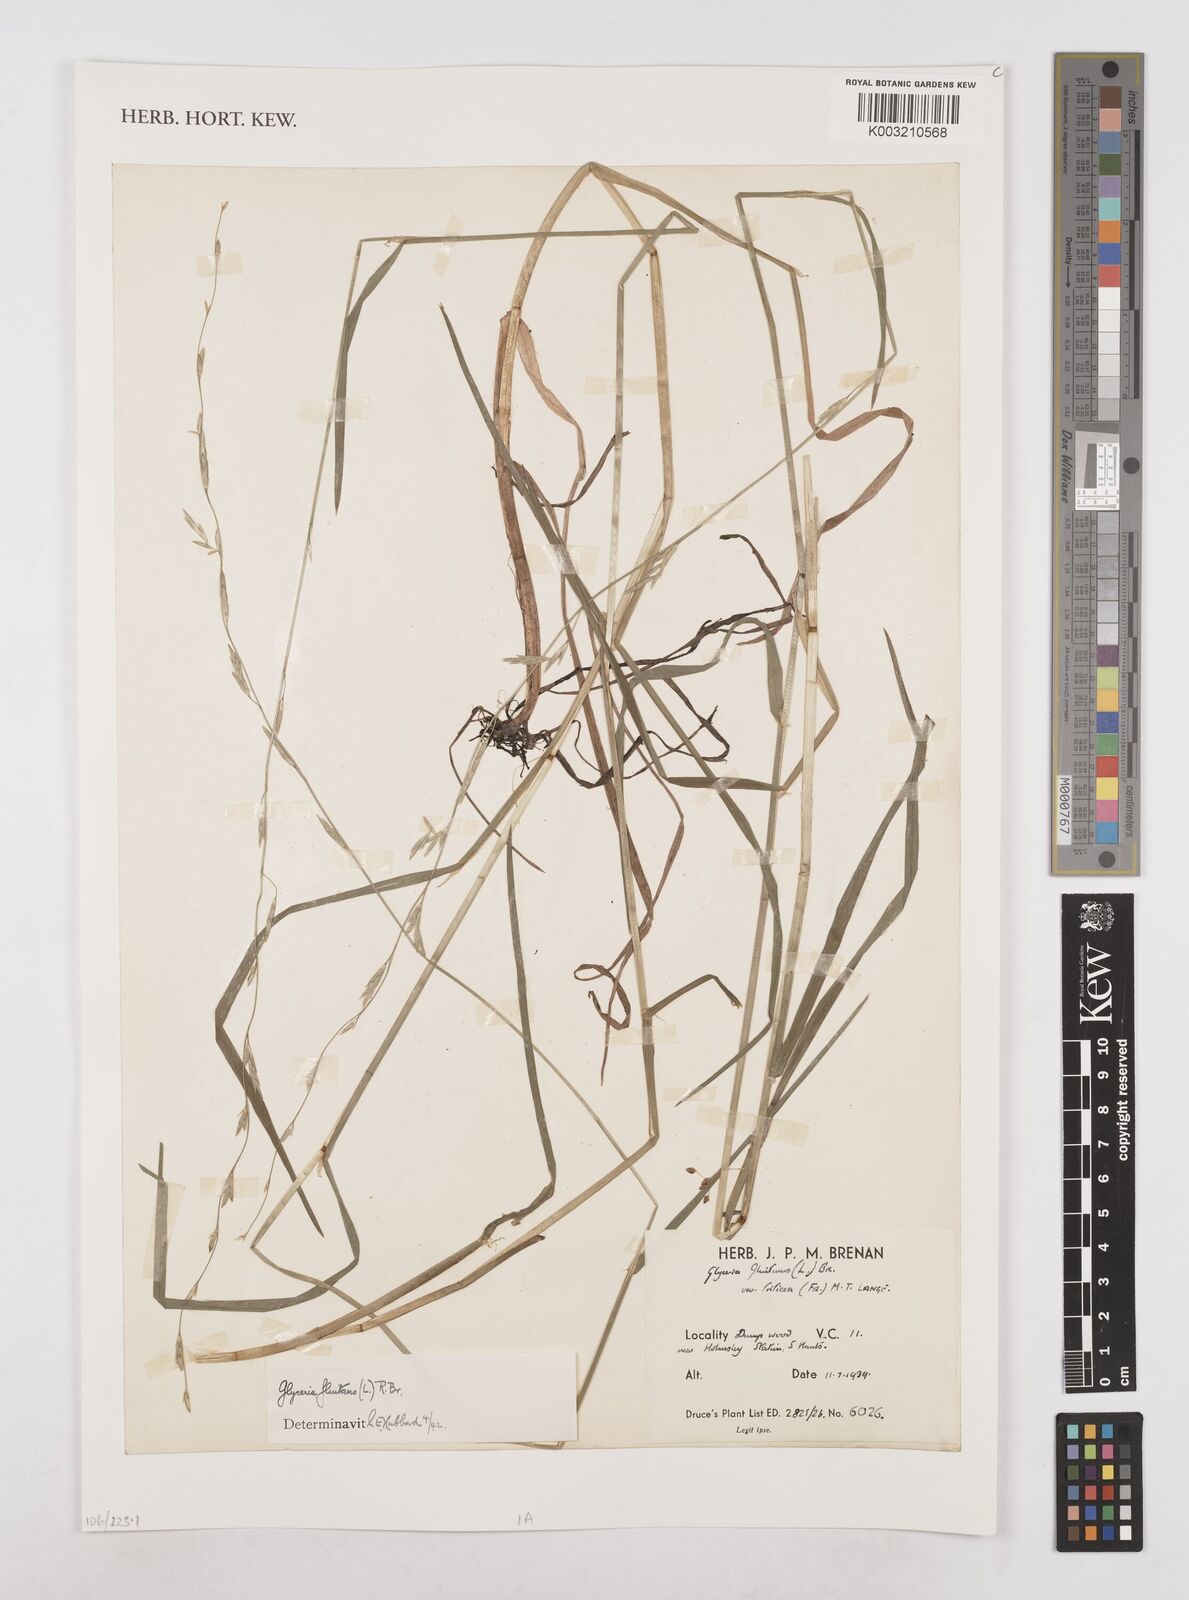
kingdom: Plantae
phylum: Tracheophyta
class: Liliopsida
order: Poales
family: Poaceae
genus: Glyceria
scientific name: Glyceria fluitans
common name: Floating sweet-grass
